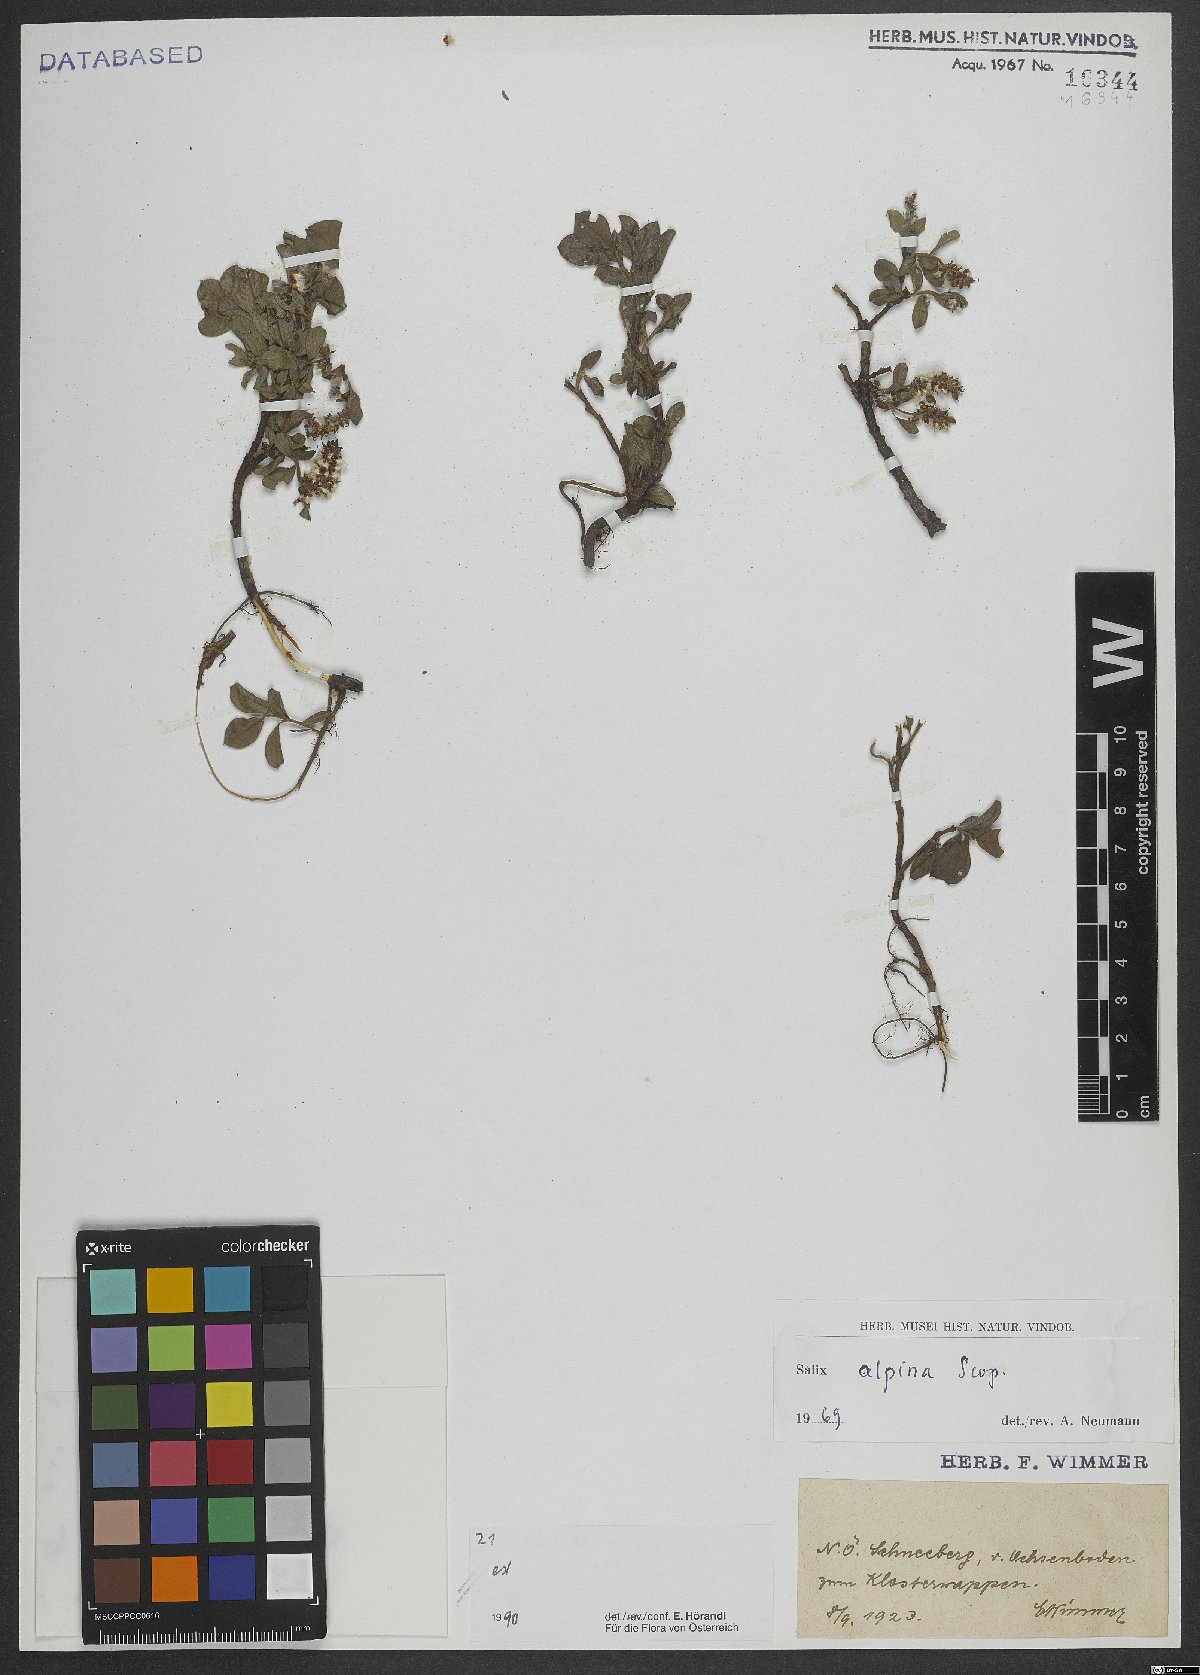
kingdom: Plantae
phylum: Tracheophyta
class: Magnoliopsida
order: Malpighiales
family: Salicaceae
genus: Salix
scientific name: Salix alpina
